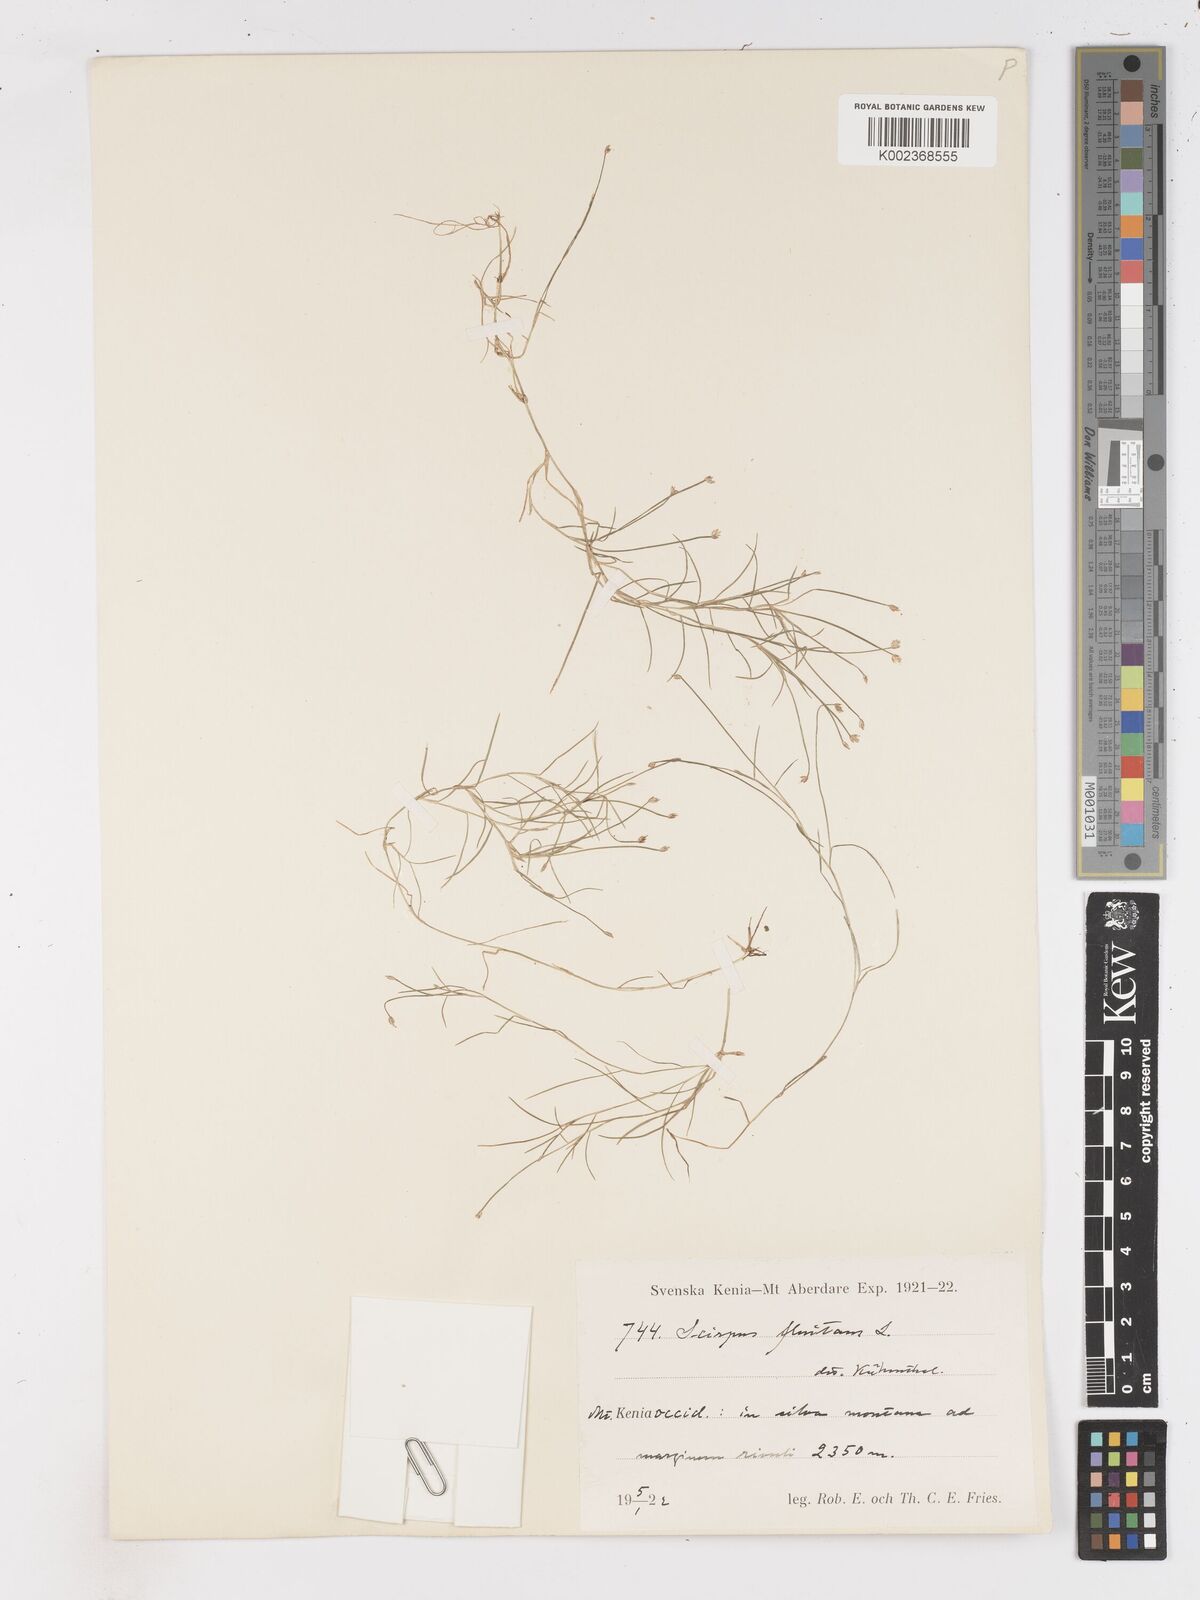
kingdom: Plantae
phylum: Tracheophyta
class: Liliopsida
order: Poales
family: Cyperaceae
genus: Isolepis
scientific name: Isolepis fluitans
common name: Floating club-rush
